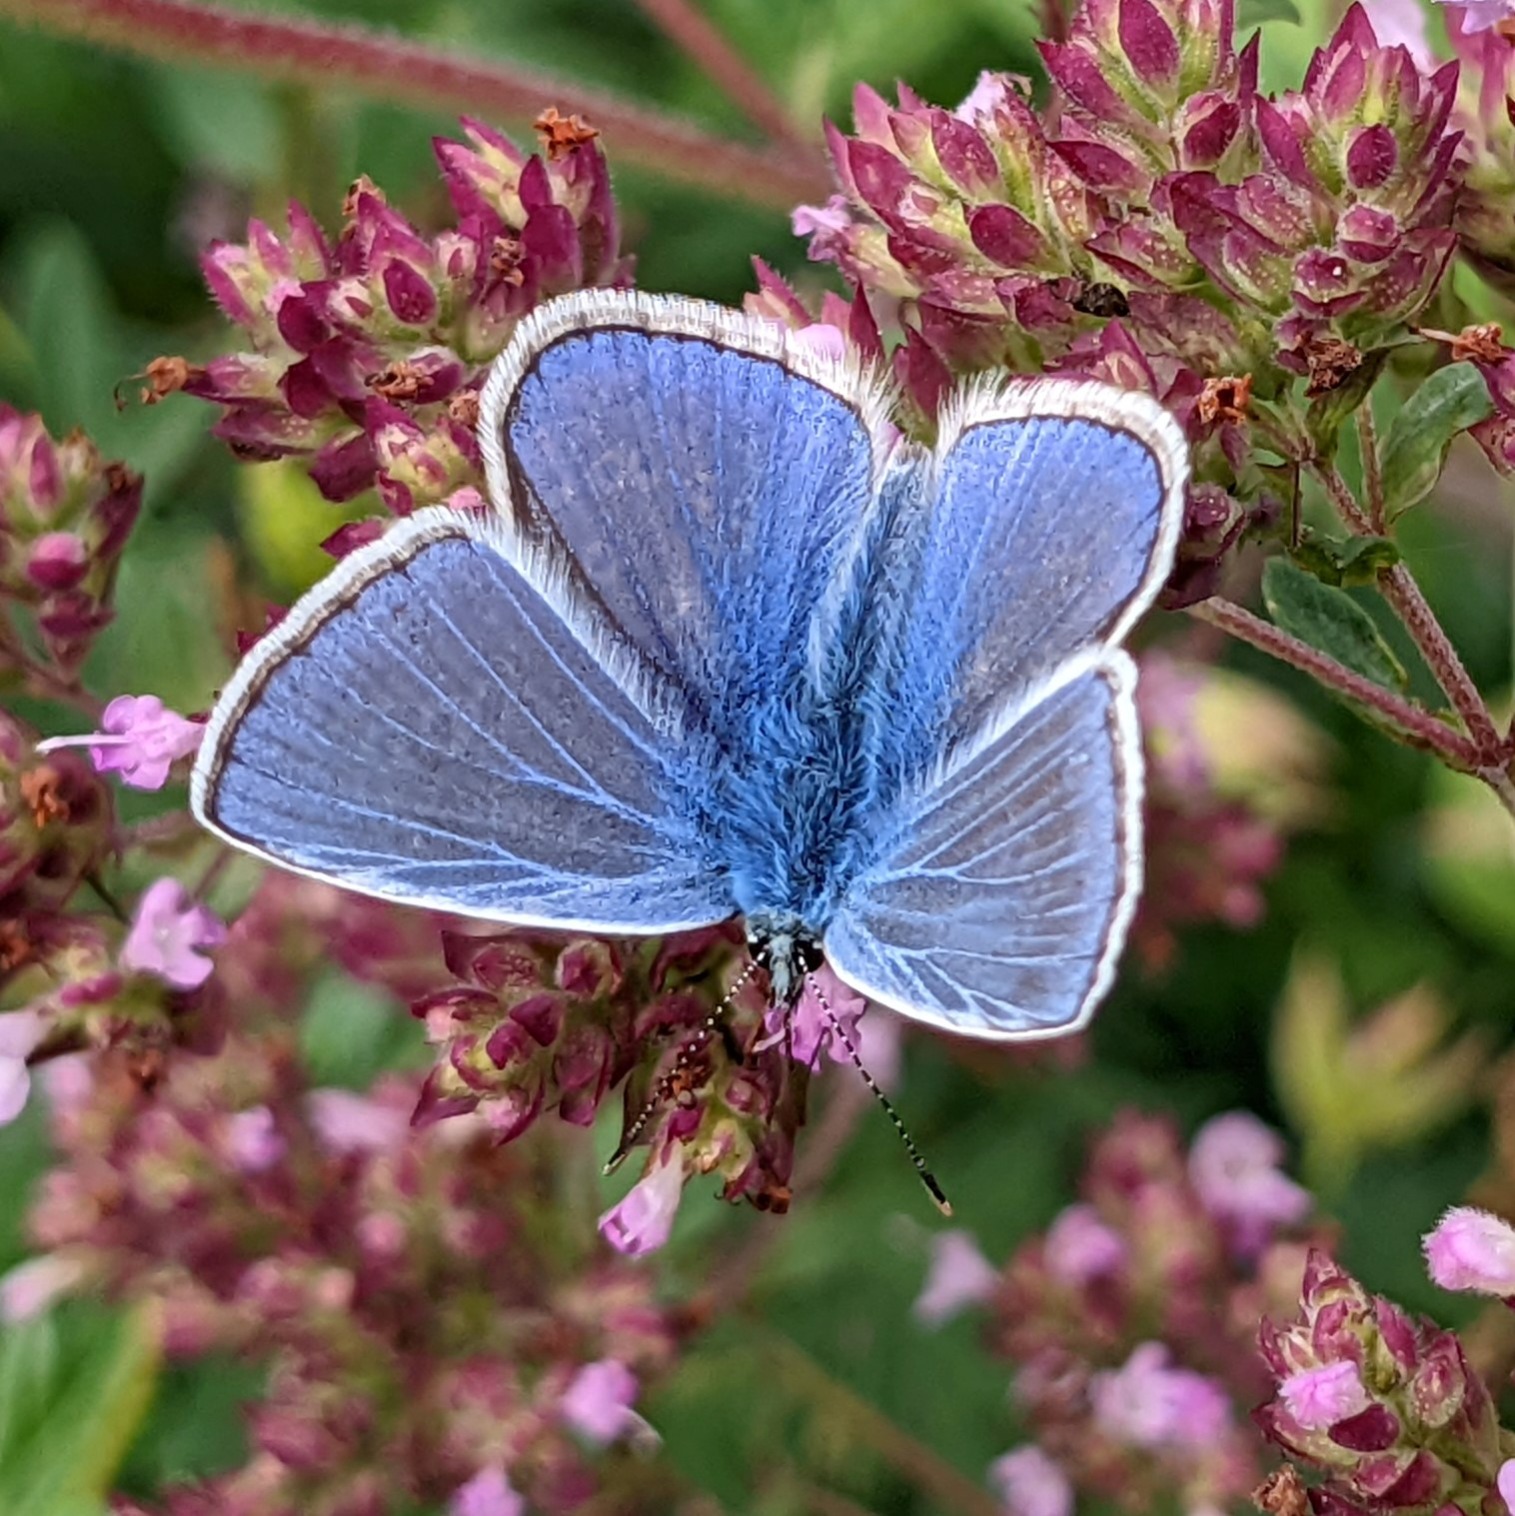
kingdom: Animalia
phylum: Arthropoda
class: Insecta
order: Lepidoptera
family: Lycaenidae
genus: Polyommatus
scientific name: Polyommatus icarus
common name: Almindelig blåfugl
